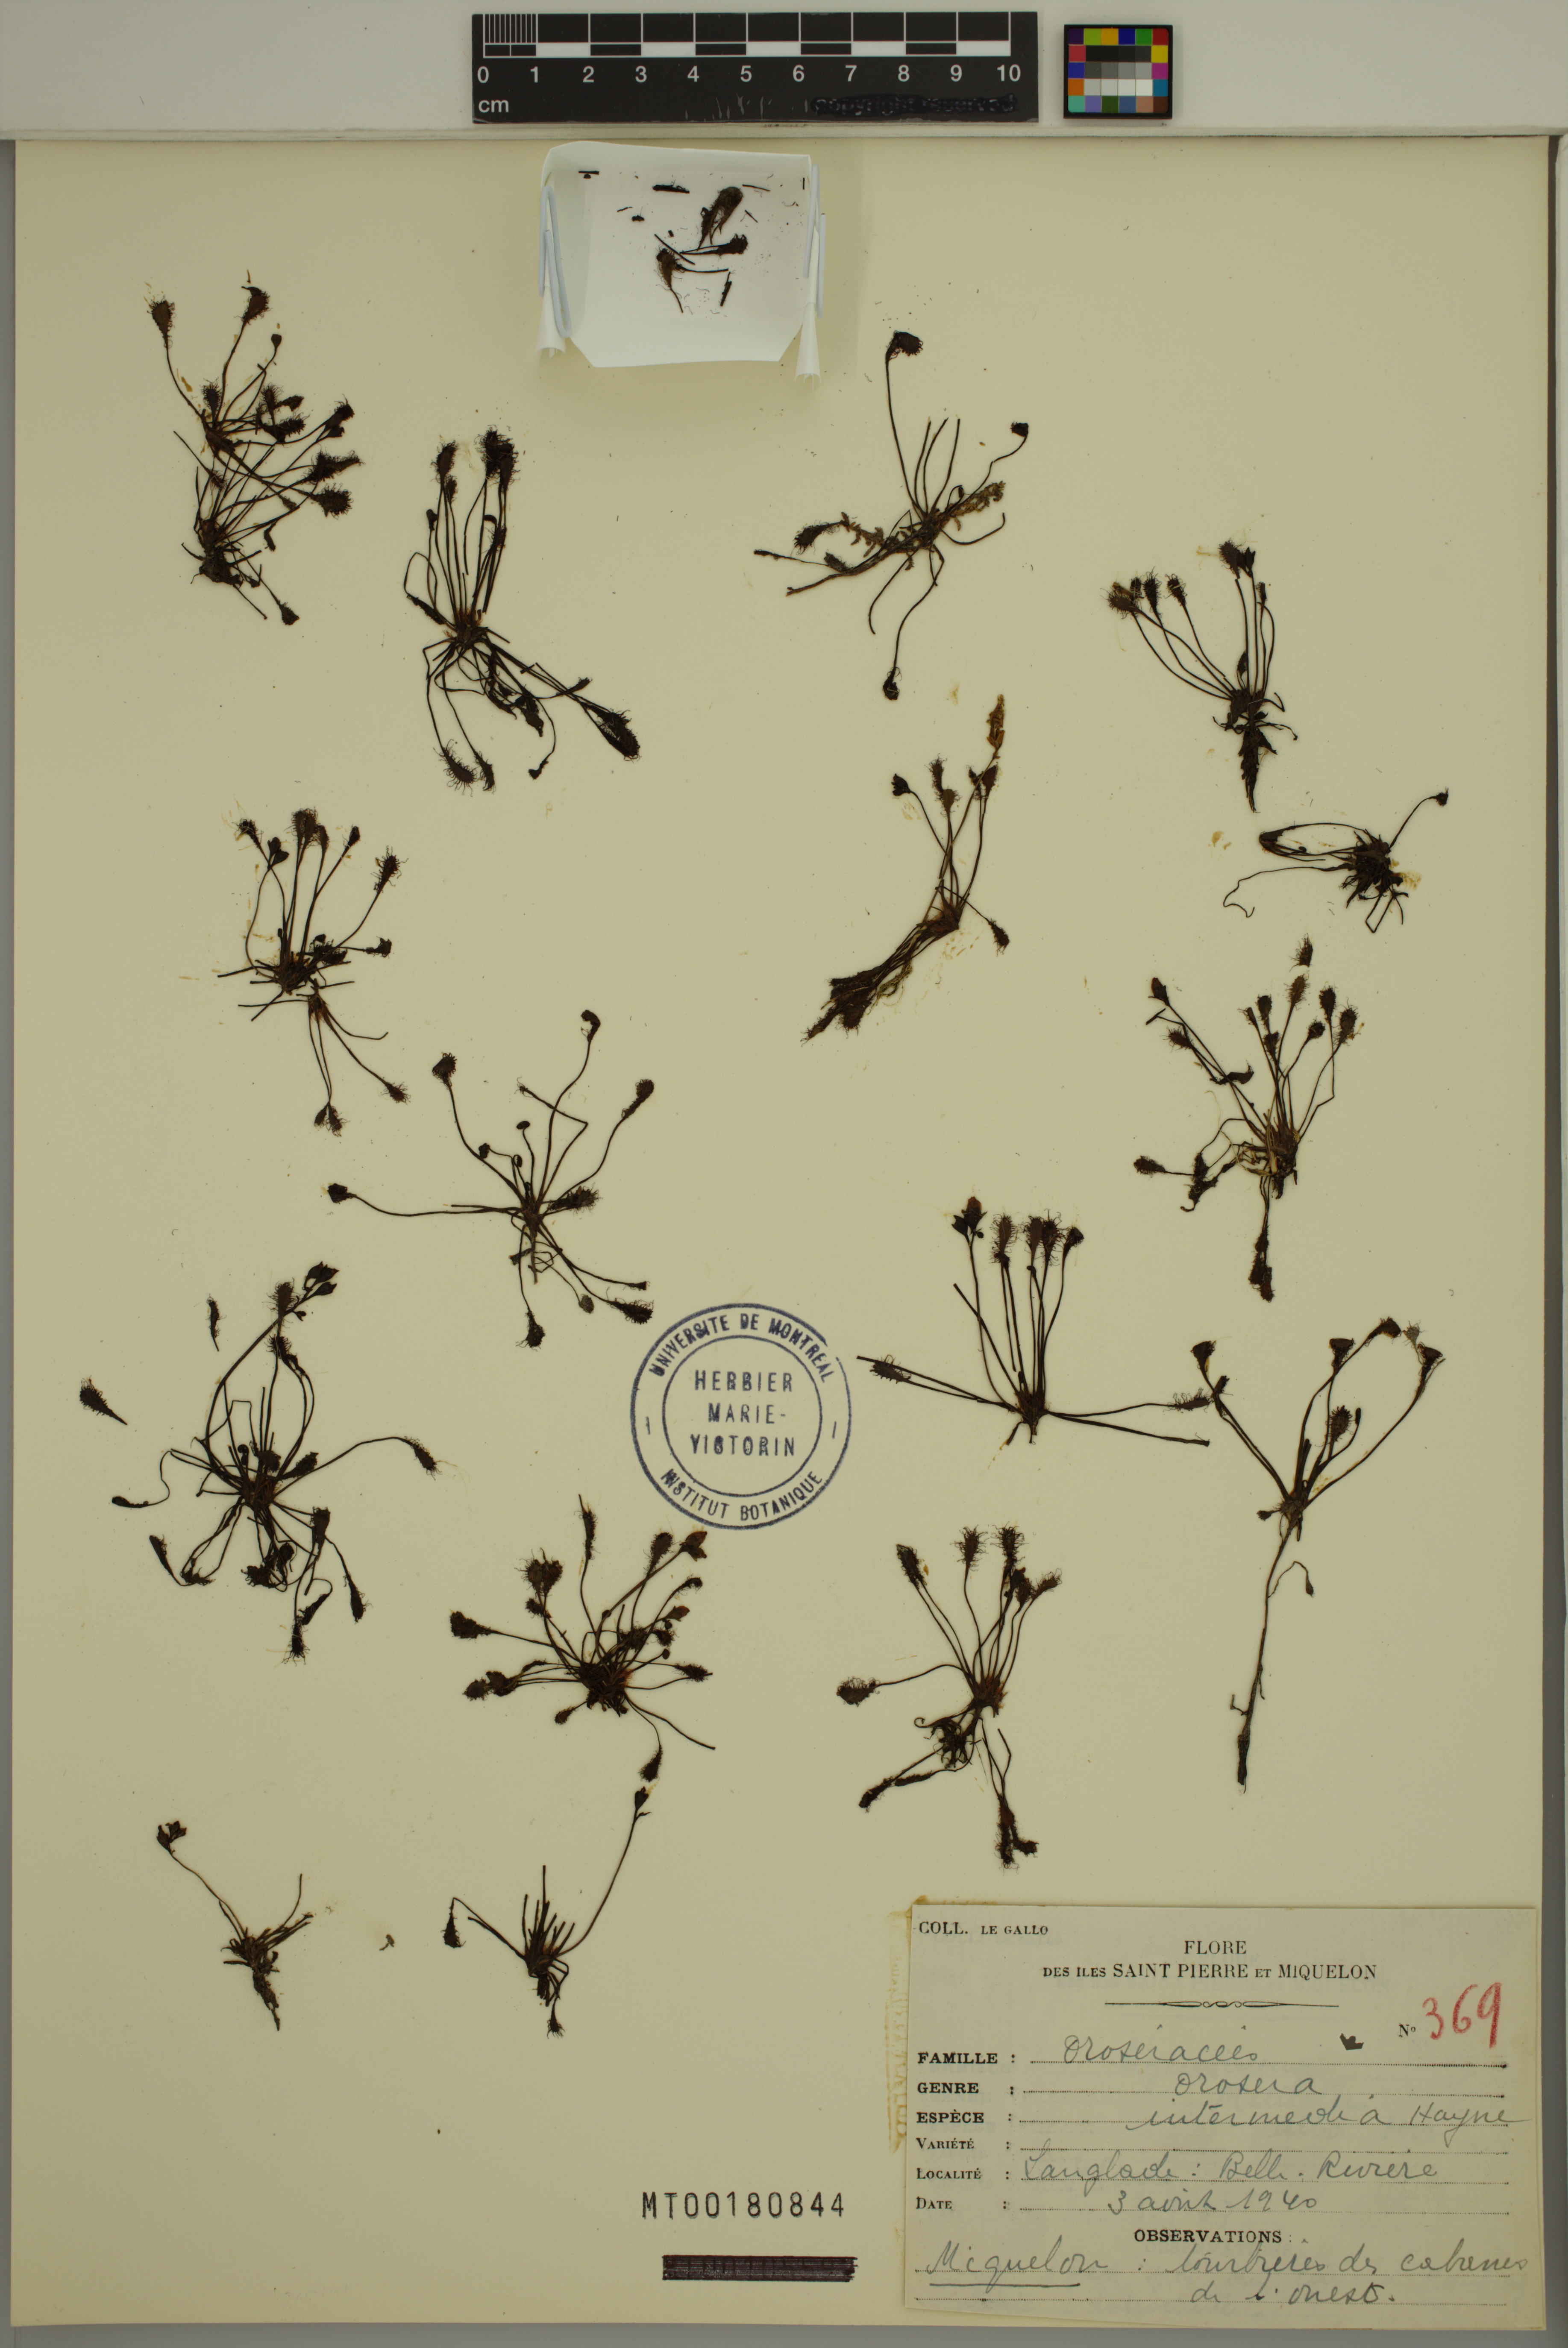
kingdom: Plantae
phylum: Tracheophyta
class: Magnoliopsida
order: Caryophyllales
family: Droseraceae
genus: Drosera
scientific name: Drosera intermedia
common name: Oblong-leaved sundew
